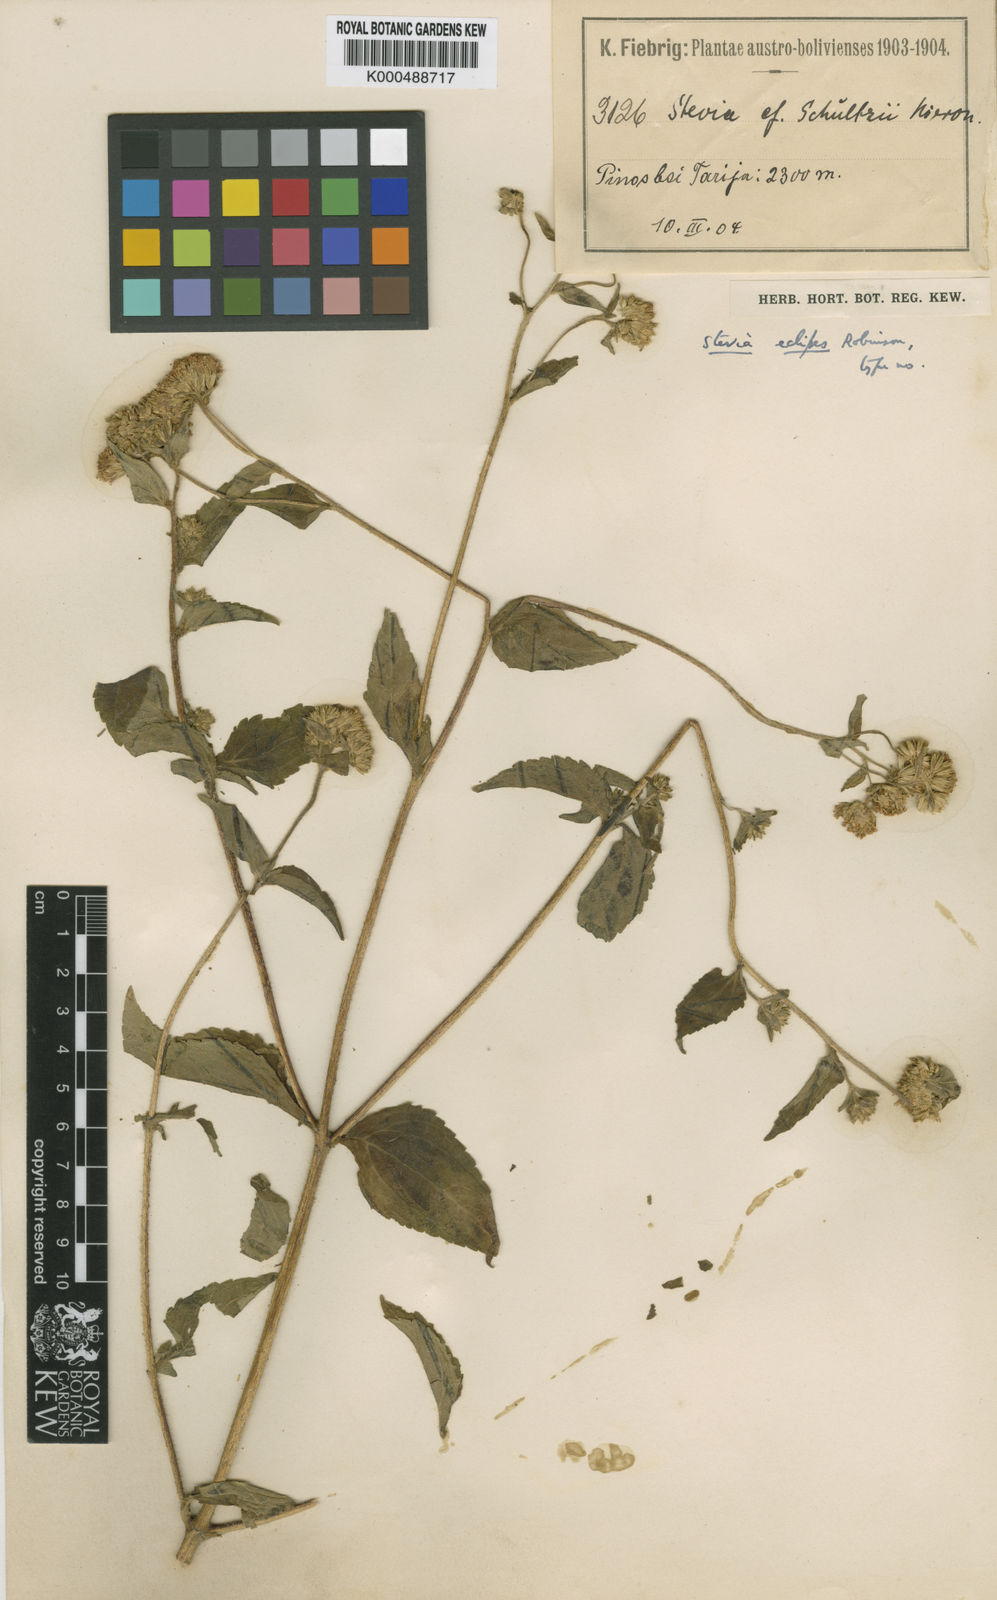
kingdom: Plantae
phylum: Tracheophyta
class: Magnoliopsida
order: Asterales
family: Asteraceae
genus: Stevia
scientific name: Stevia eclipes
